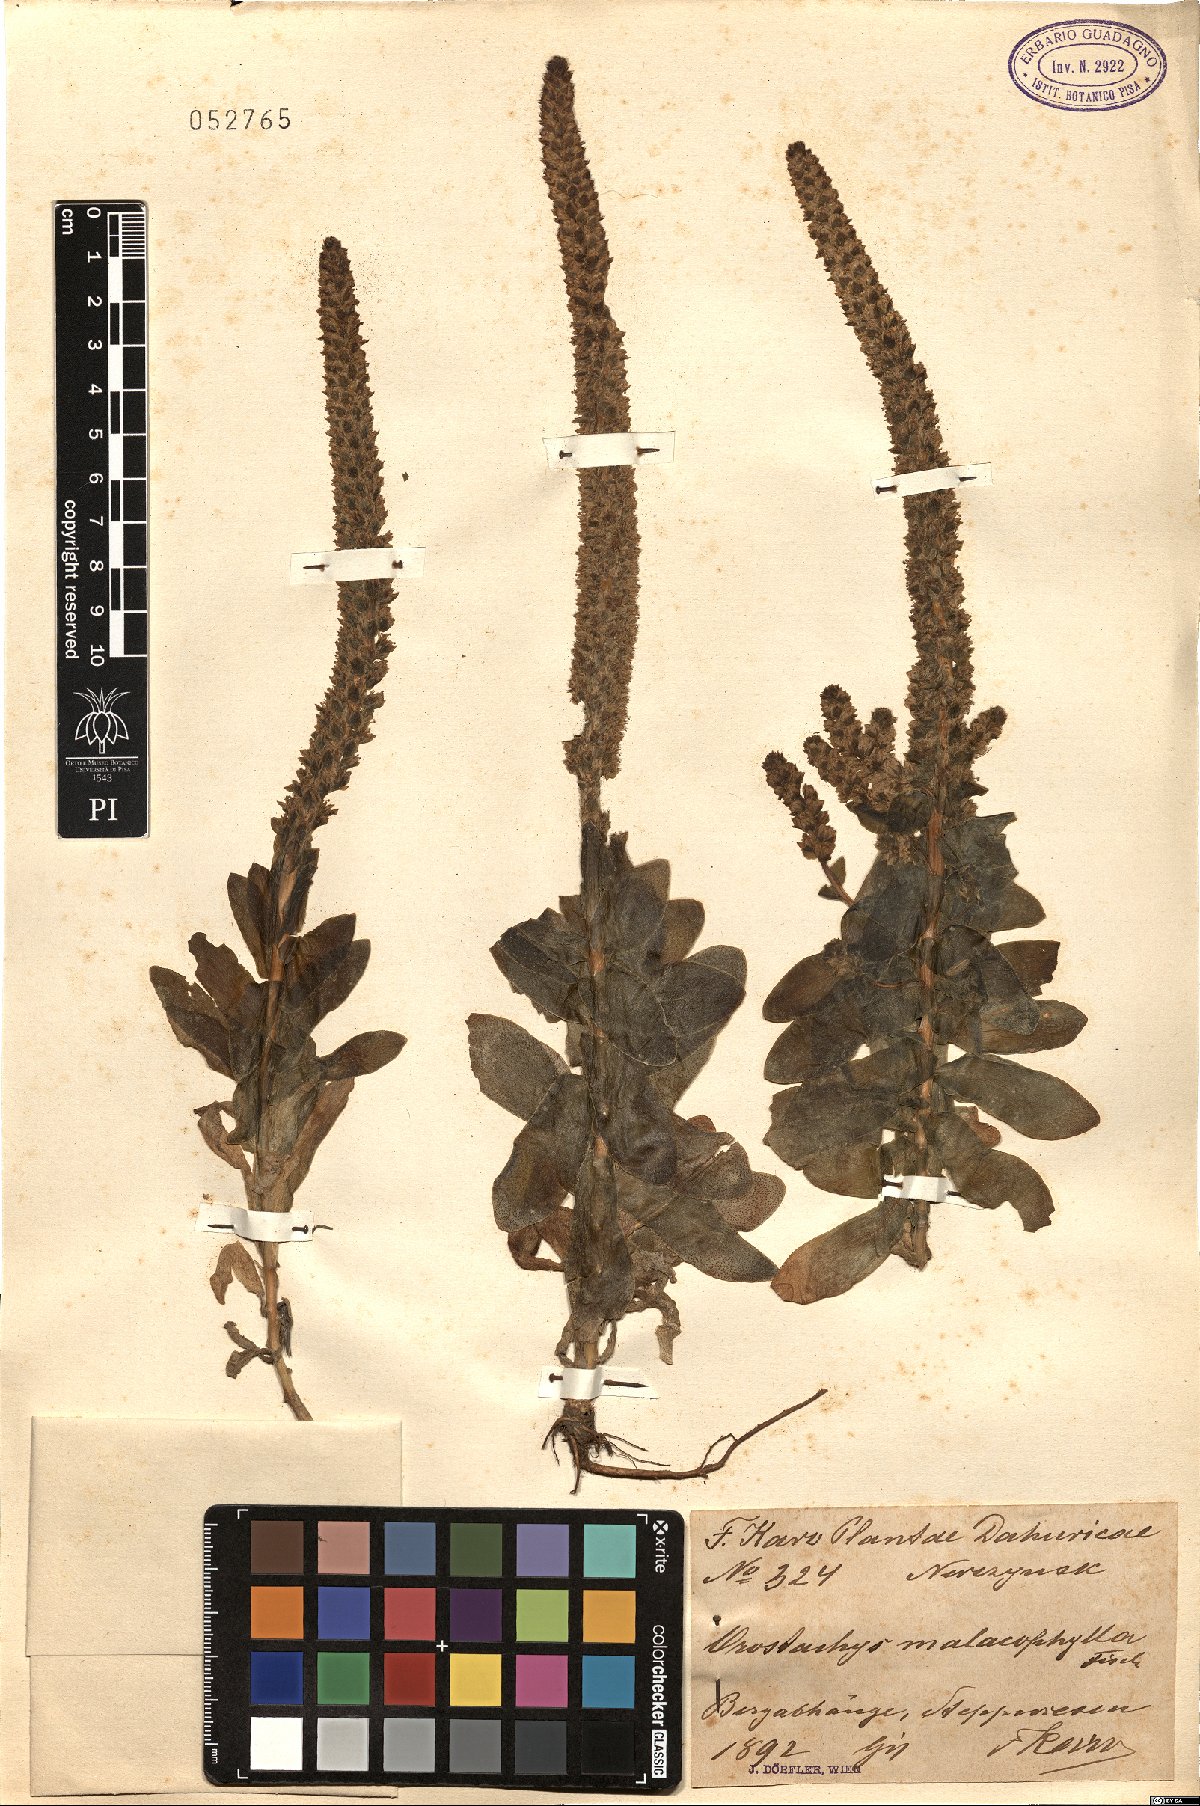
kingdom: Plantae
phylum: Tracheophyta
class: Magnoliopsida
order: Saxifragales
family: Crassulaceae
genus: Orostachys
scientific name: Orostachys malacophylla
